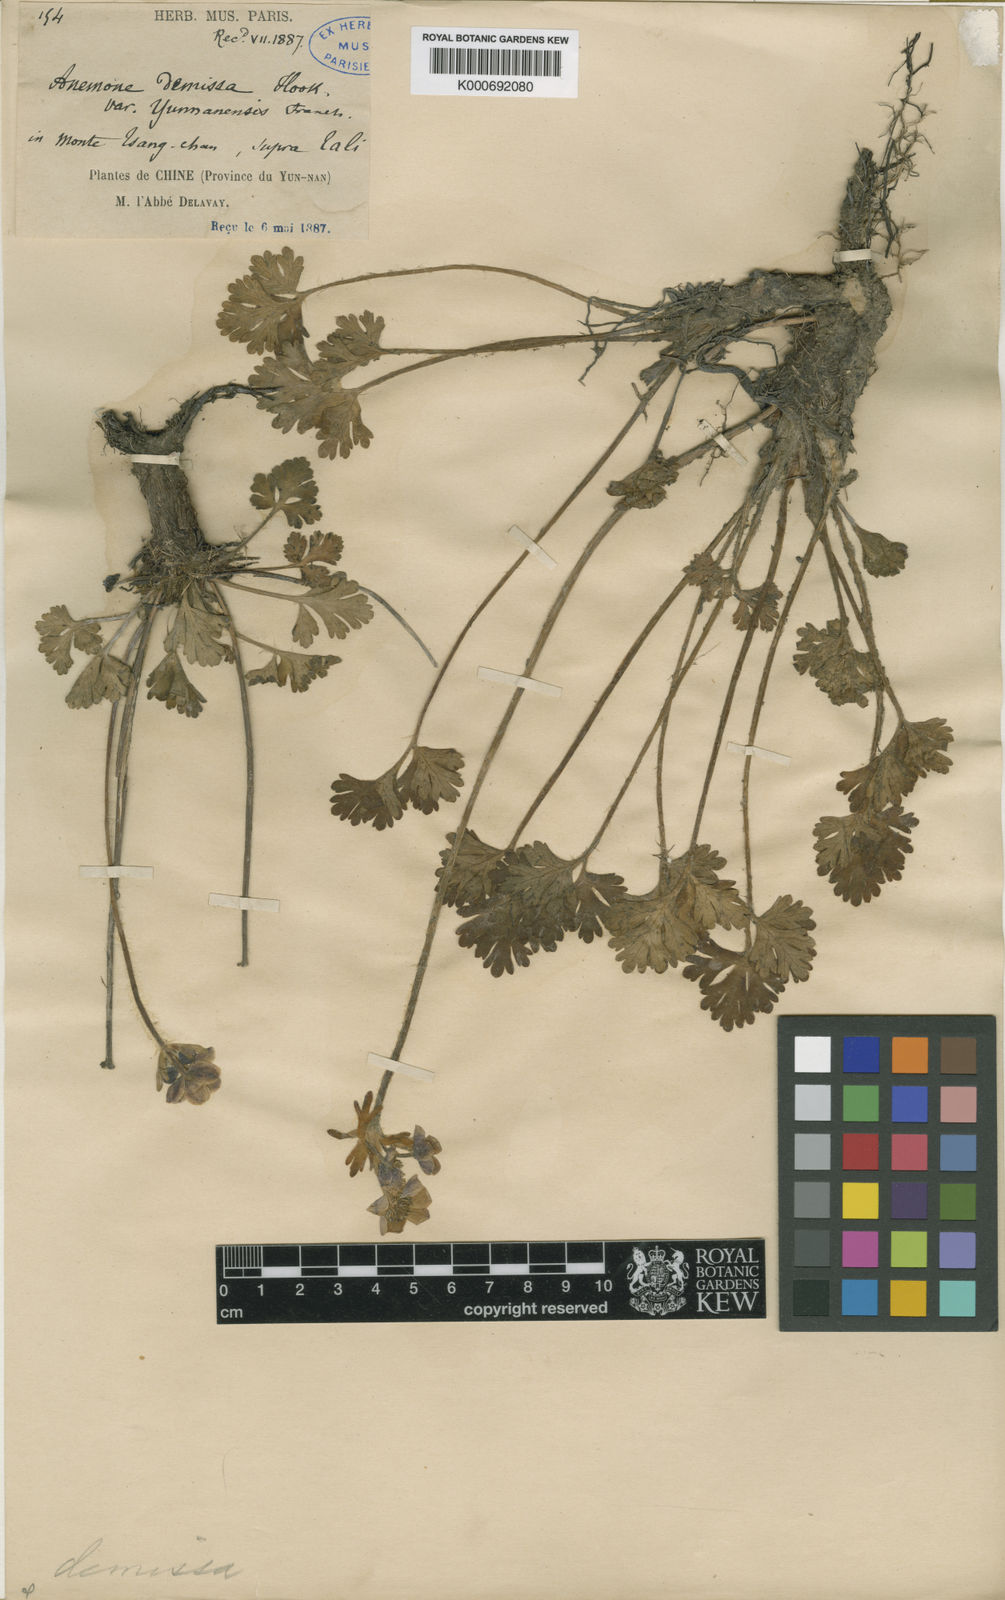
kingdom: Plantae
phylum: Tracheophyta
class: Magnoliopsida
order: Ranunculales
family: Ranunculaceae
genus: Anemone
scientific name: Anemone
